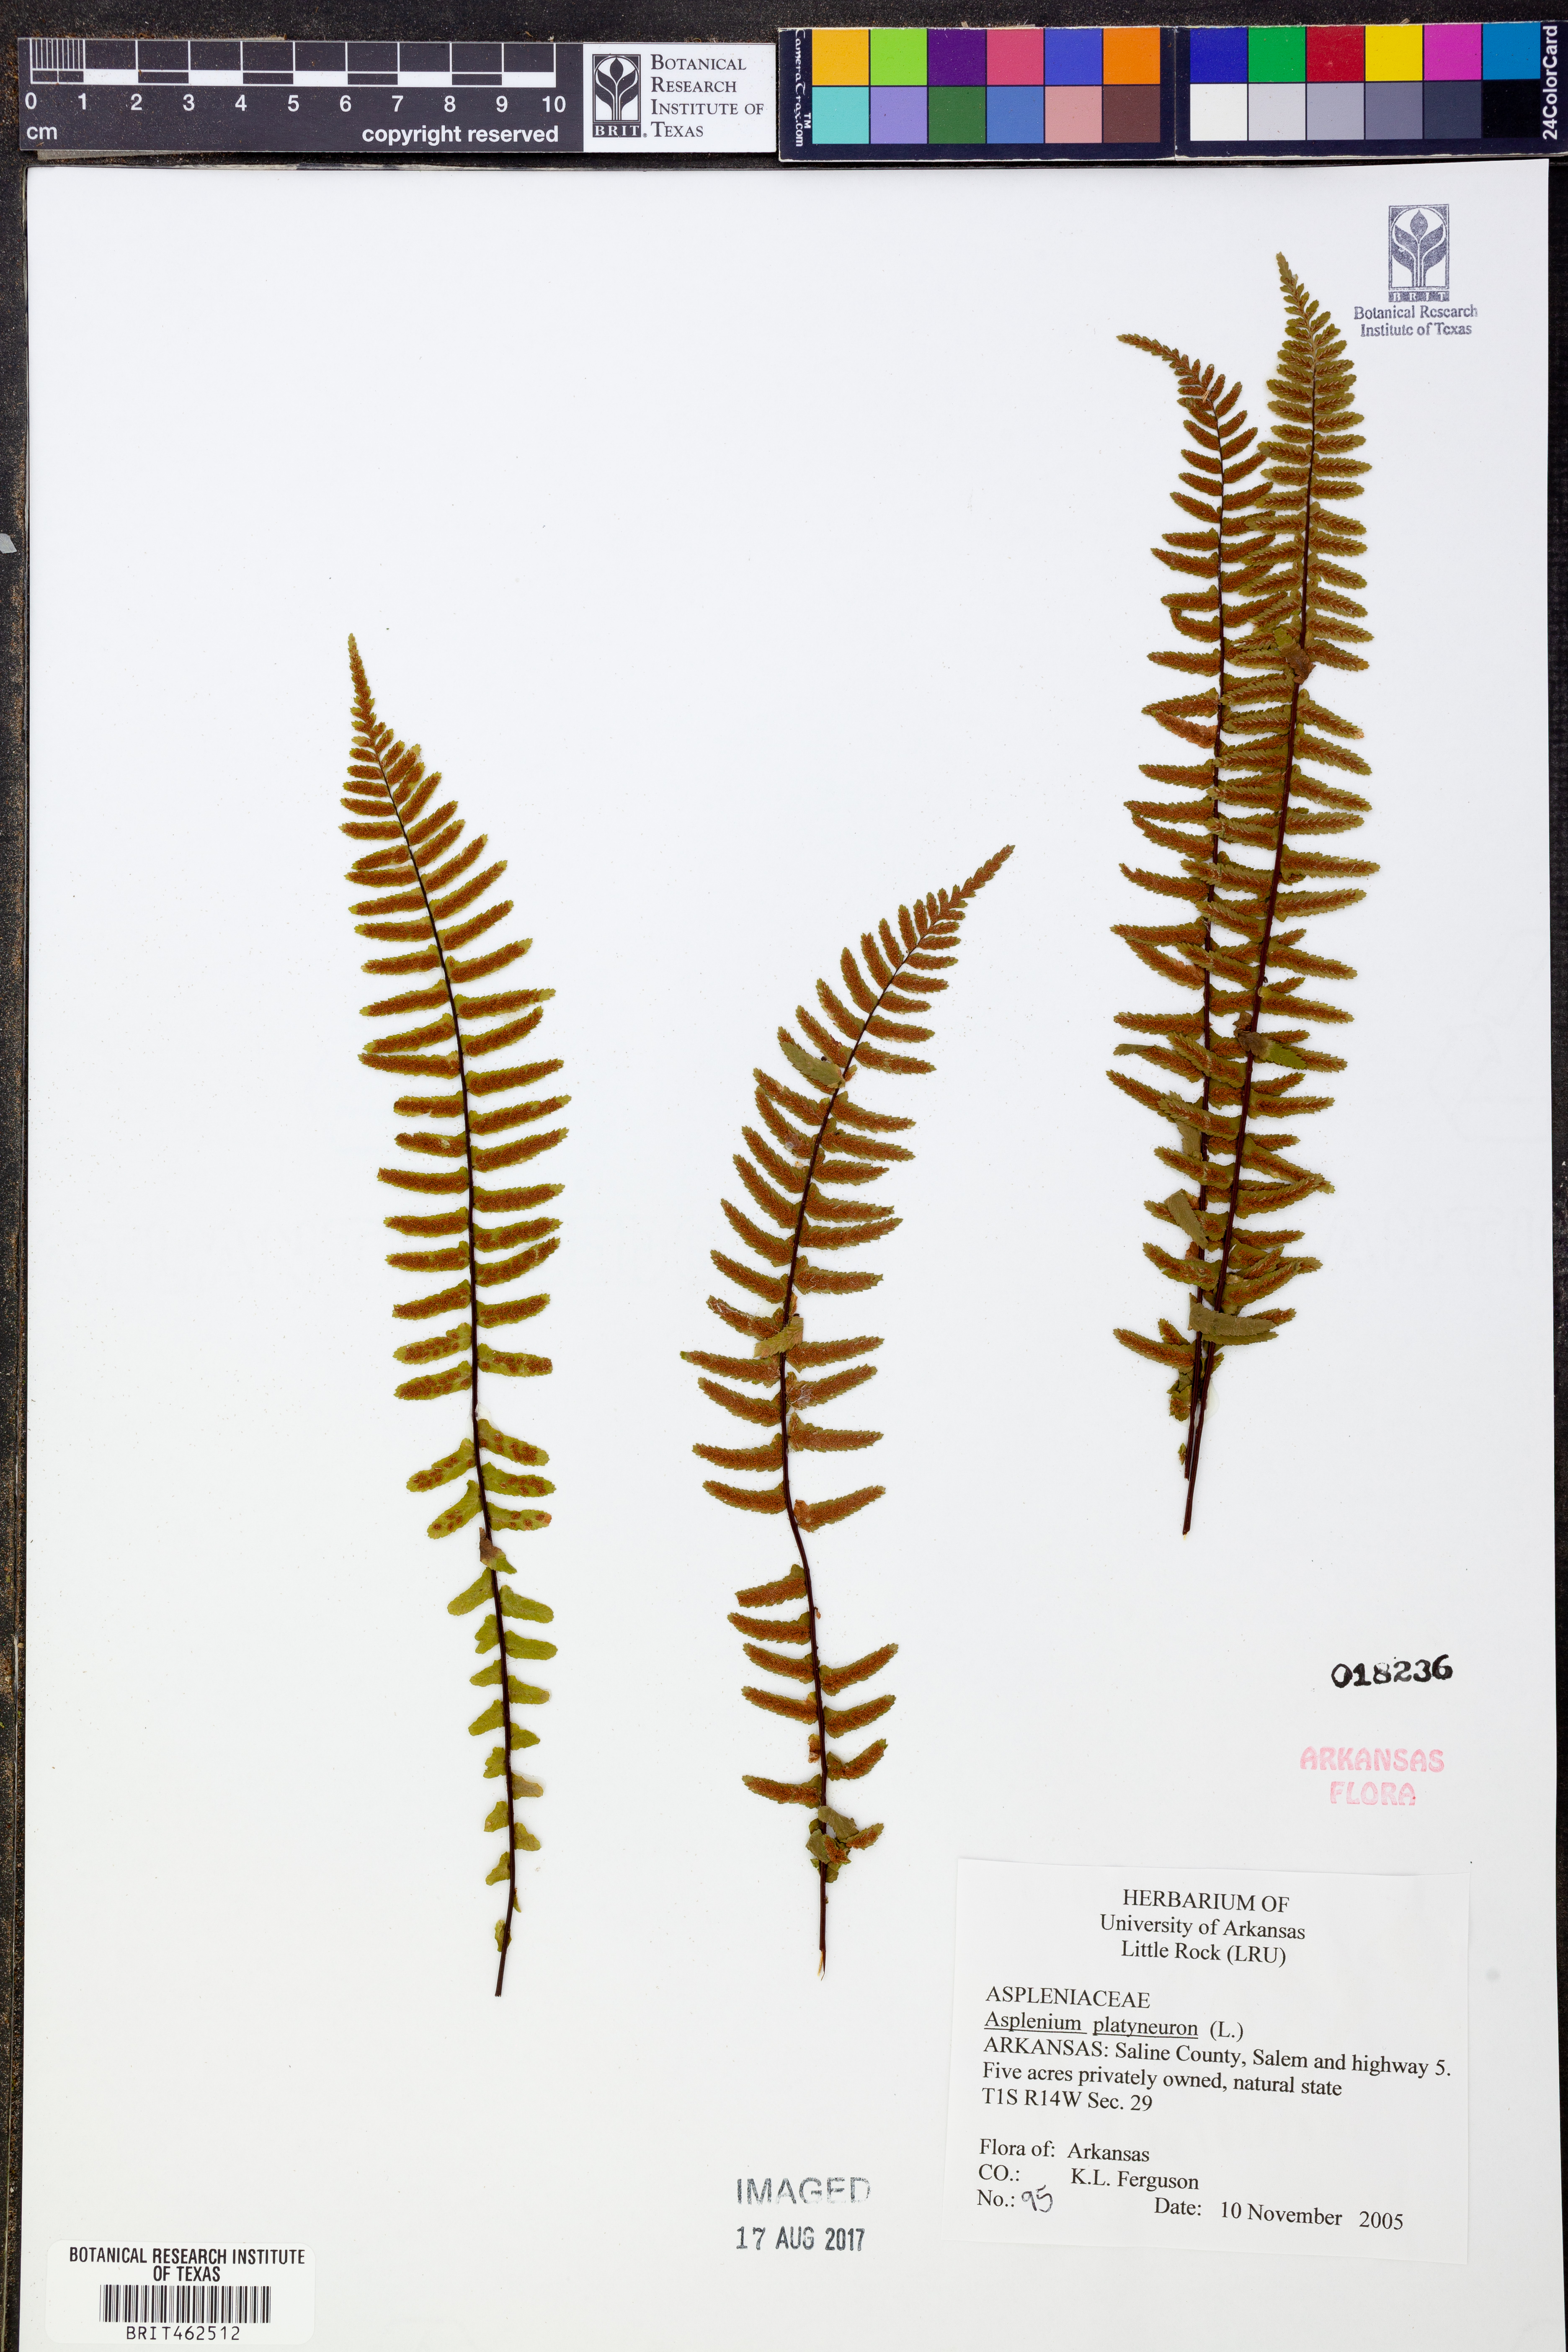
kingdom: Plantae
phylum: Tracheophyta
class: Polypodiopsida
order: Polypodiales
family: Aspleniaceae
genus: Asplenium
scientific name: Asplenium platyneuron
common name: Ebony spleenwort
